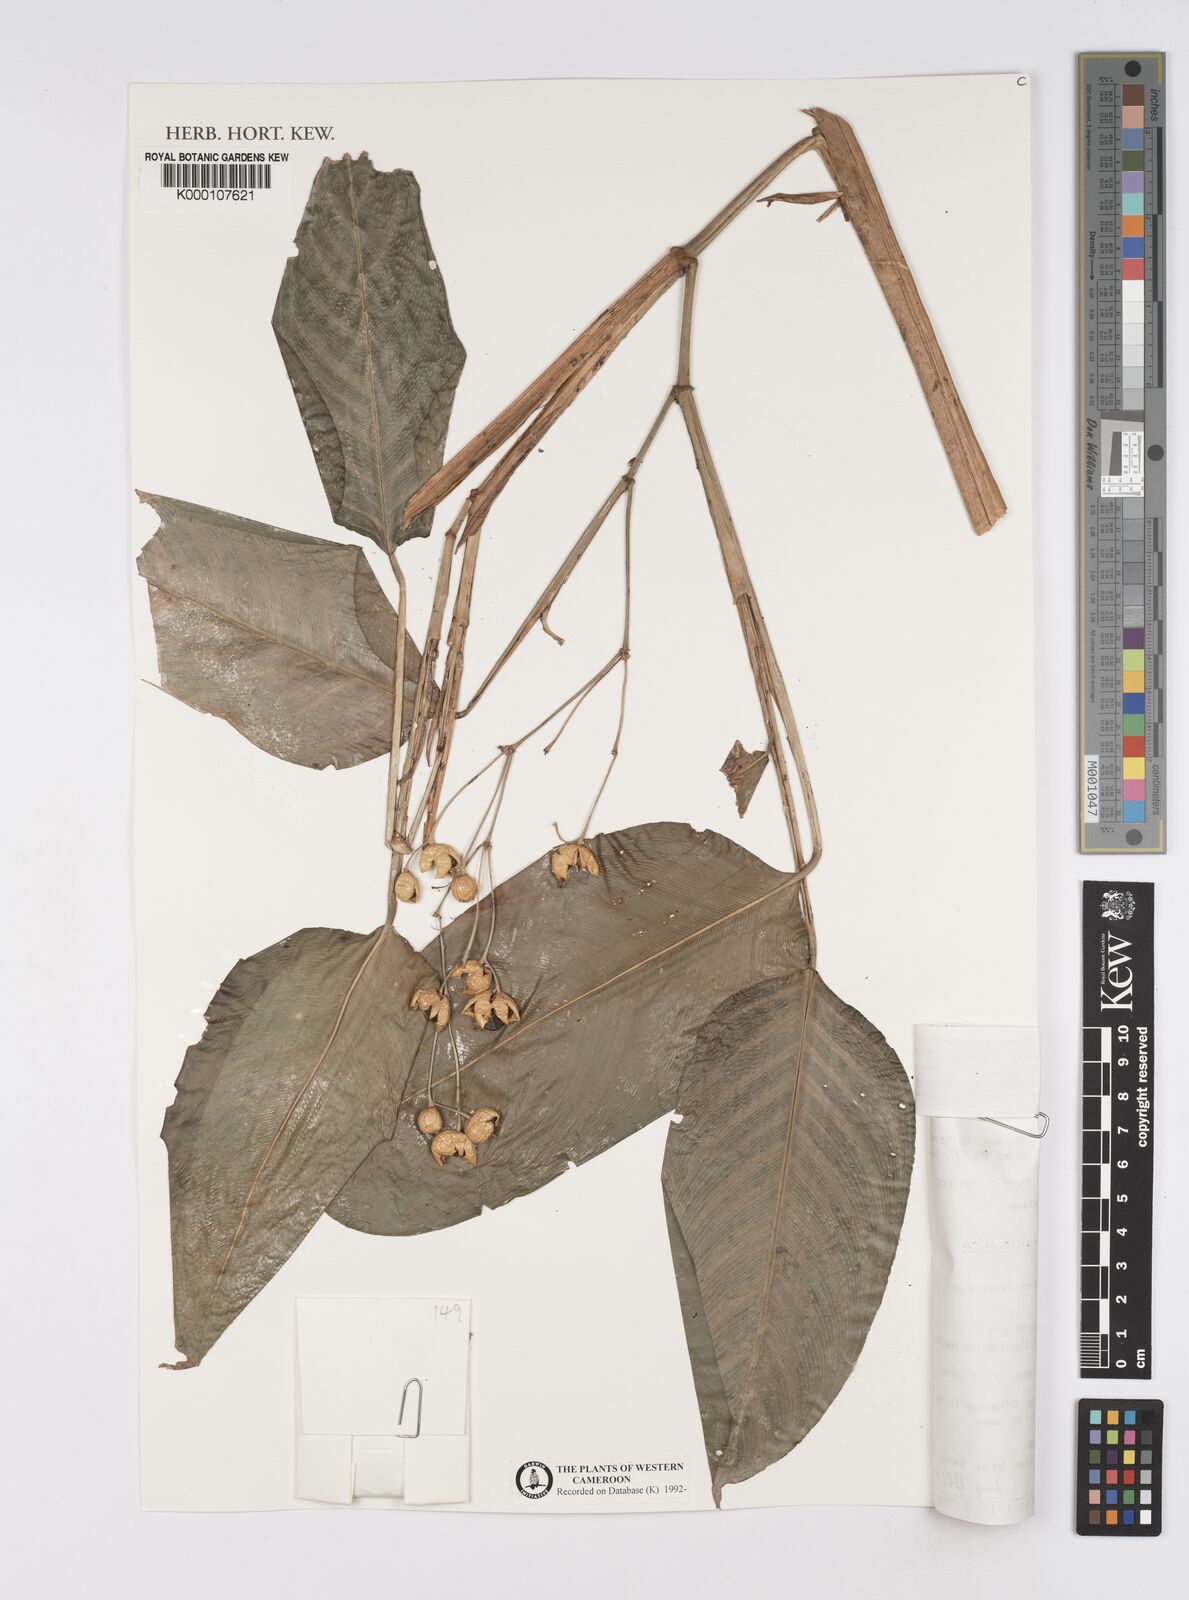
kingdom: Plantae
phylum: Tracheophyta
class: Liliopsida
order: Zingiberales
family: Marantaceae
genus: Marantochloa
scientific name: Marantochloa leucantha
